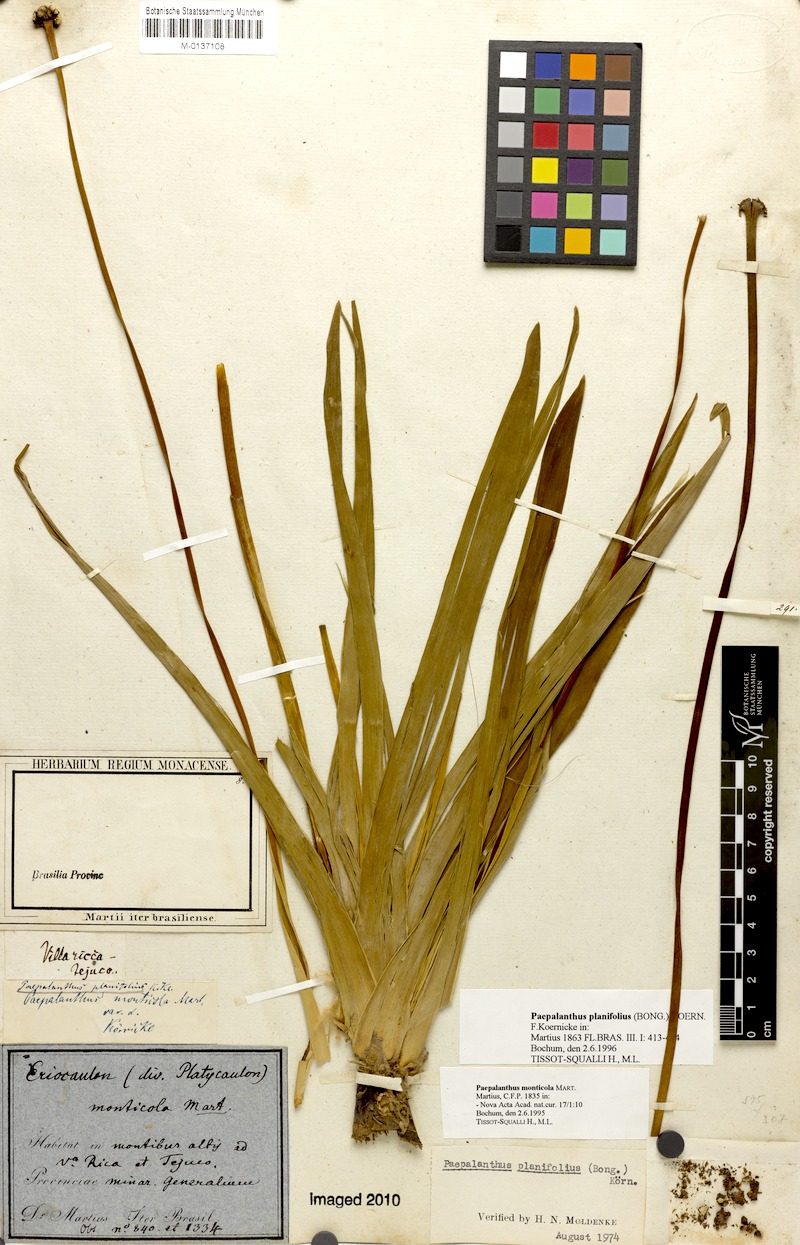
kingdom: Plantae
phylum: Tracheophyta
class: Liliopsida
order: Poales
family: Eriocaulaceae
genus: Paepalanthus
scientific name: Paepalanthus planifolius
